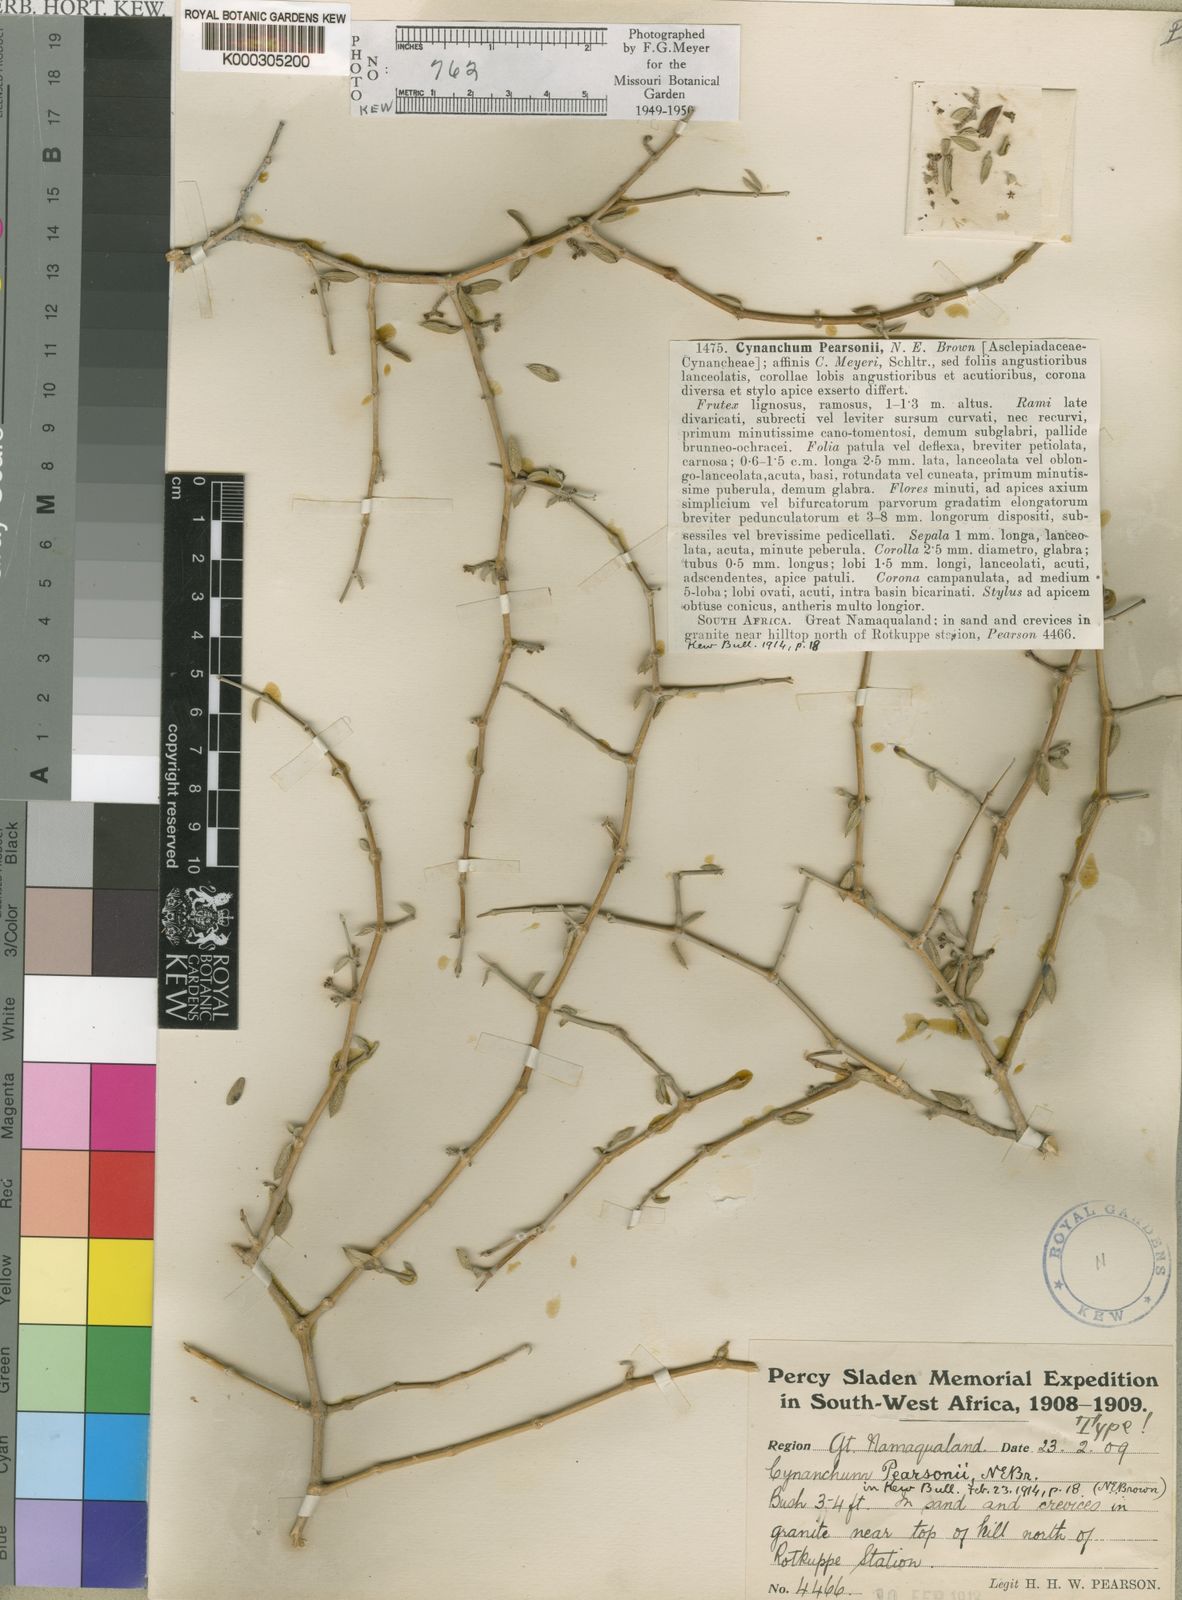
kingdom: Plantae
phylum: Tracheophyta
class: Magnoliopsida
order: Gentianales
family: Apocynaceae
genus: Cynanchum
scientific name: Cynanchum meyeri
